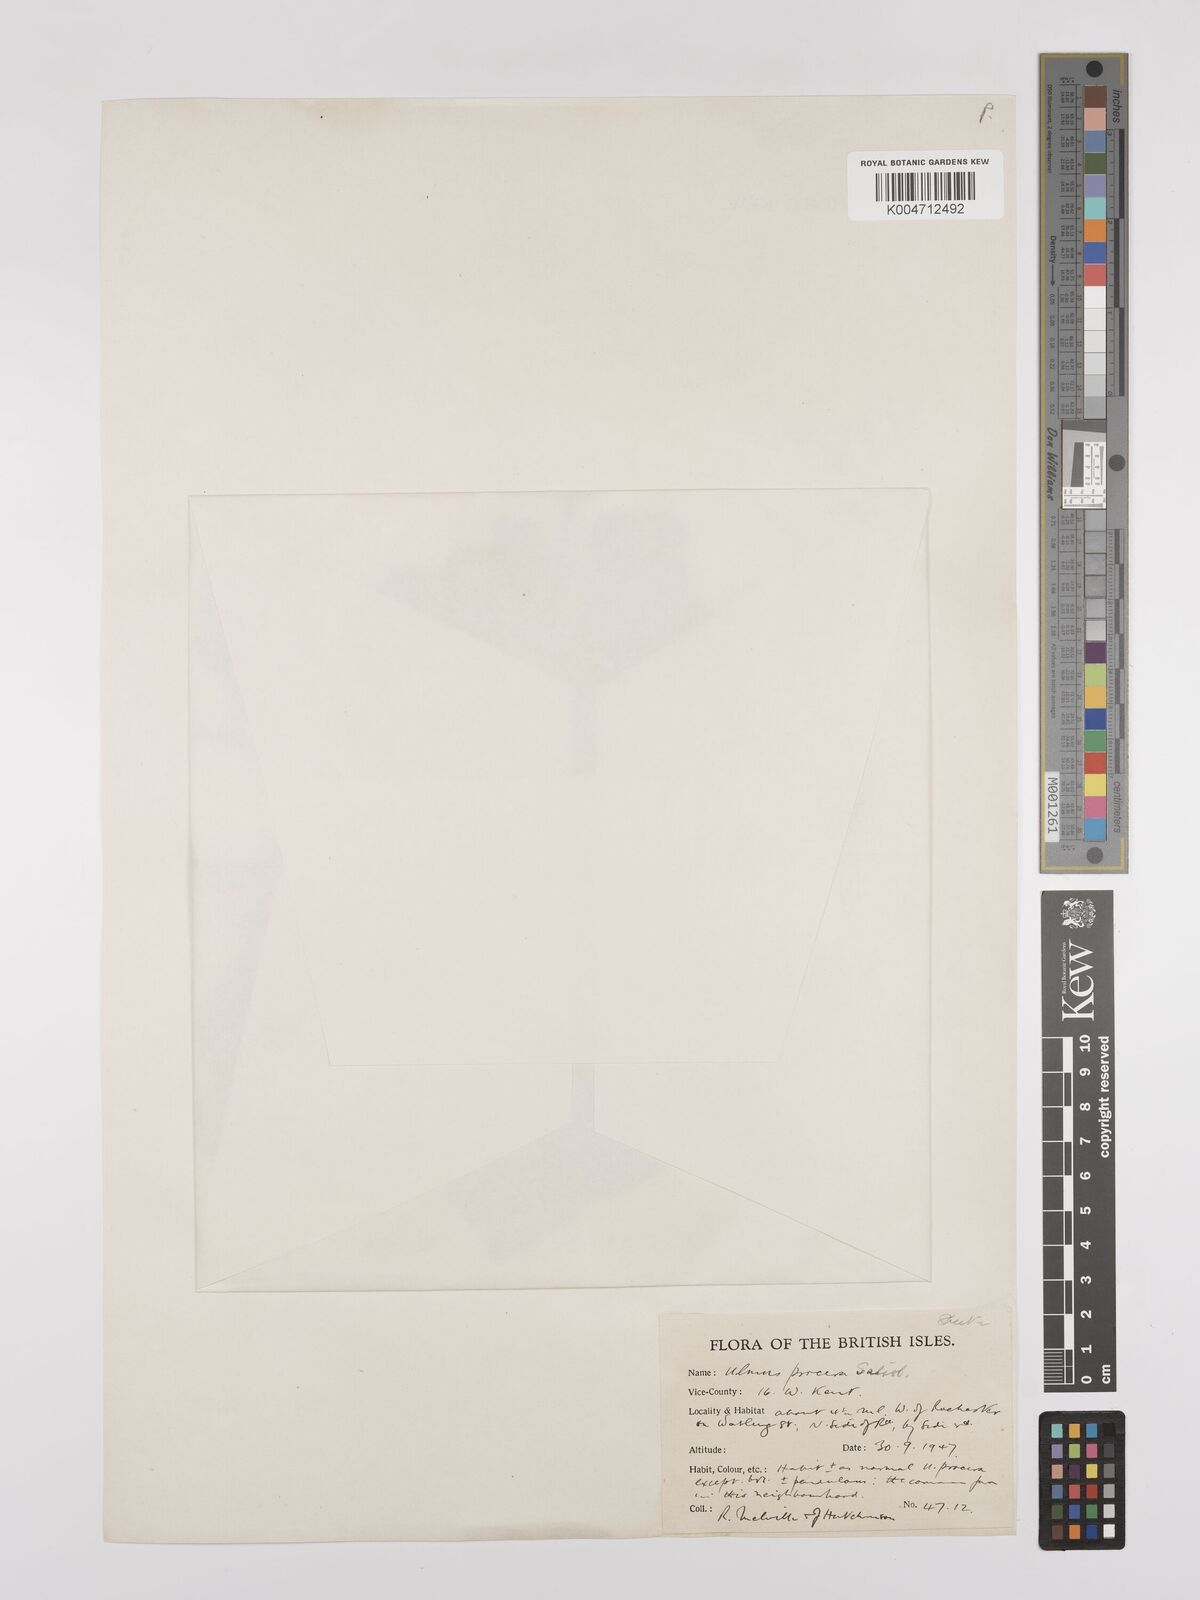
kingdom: Plantae
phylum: Tracheophyta
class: Magnoliopsida
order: Rosales
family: Ulmaceae
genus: Ulmus
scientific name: Ulmus minor
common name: Small-leaved elm
